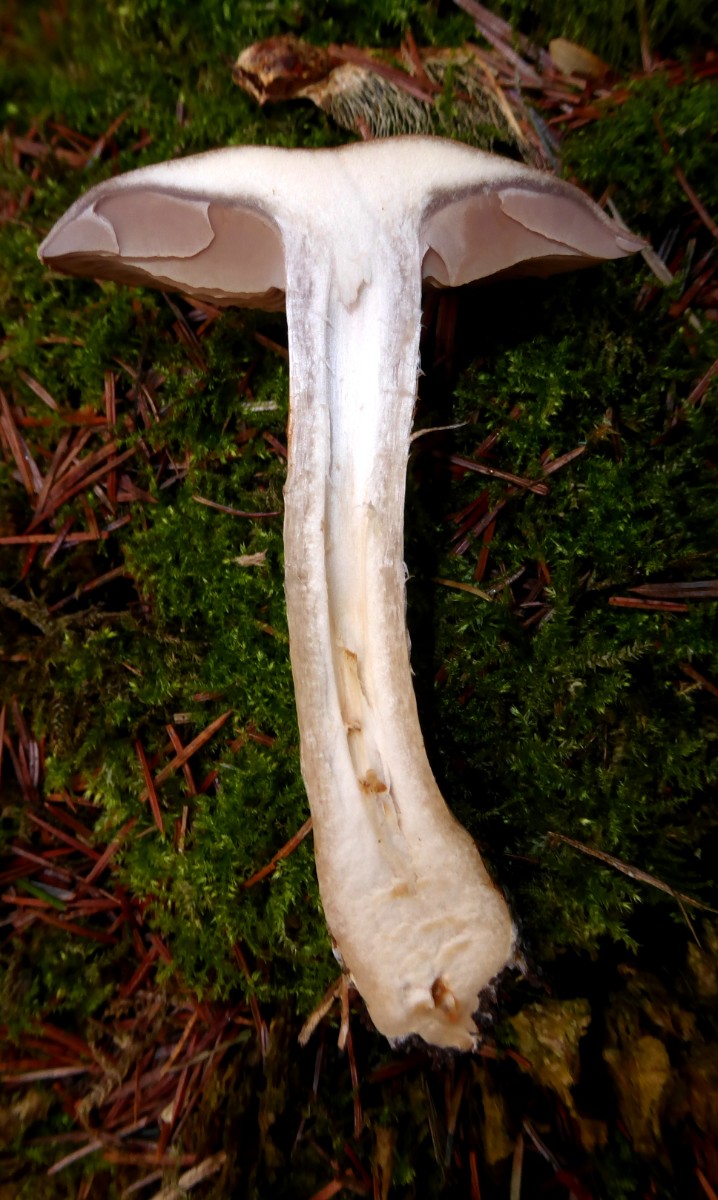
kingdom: Fungi
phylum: Basidiomycota
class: Agaricomycetes
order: Agaricales
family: Cortinariaceae
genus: Cortinarius
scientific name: Cortinarius
